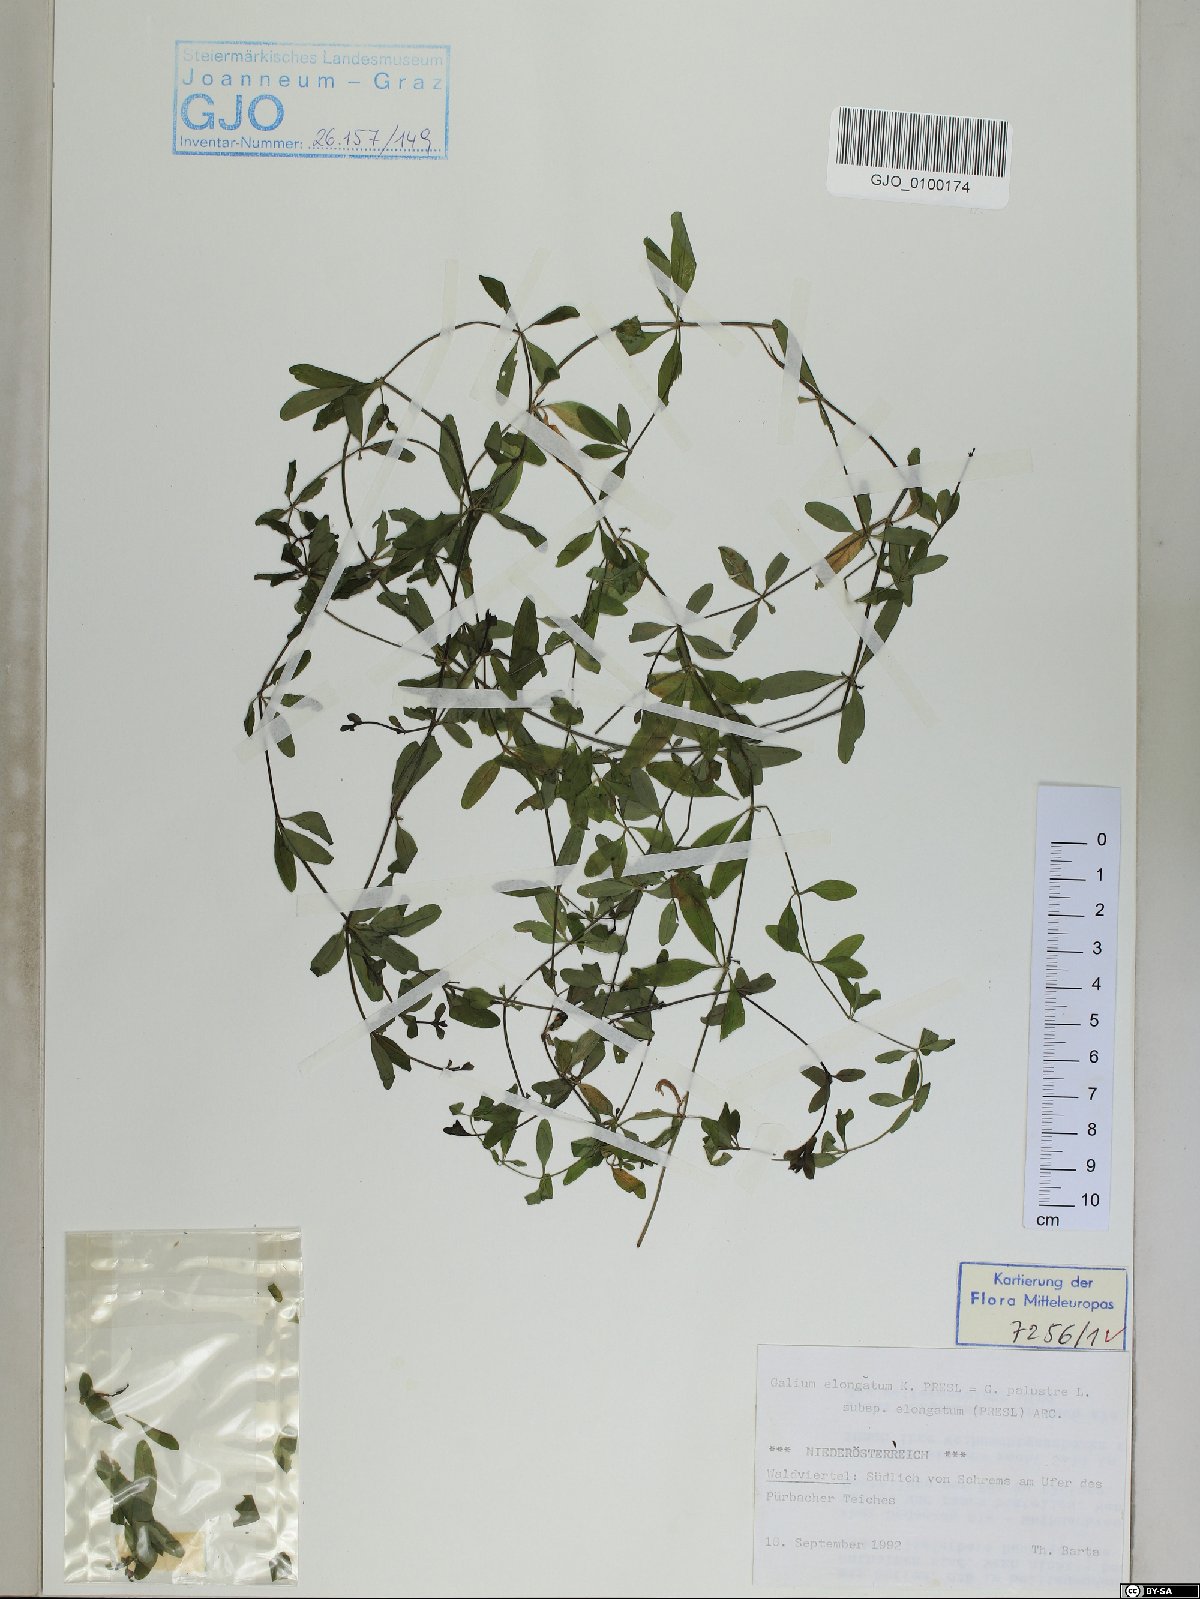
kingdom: Plantae
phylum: Tracheophyta
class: Magnoliopsida
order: Gentianales
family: Rubiaceae
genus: Galium
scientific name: Galium elongatum
